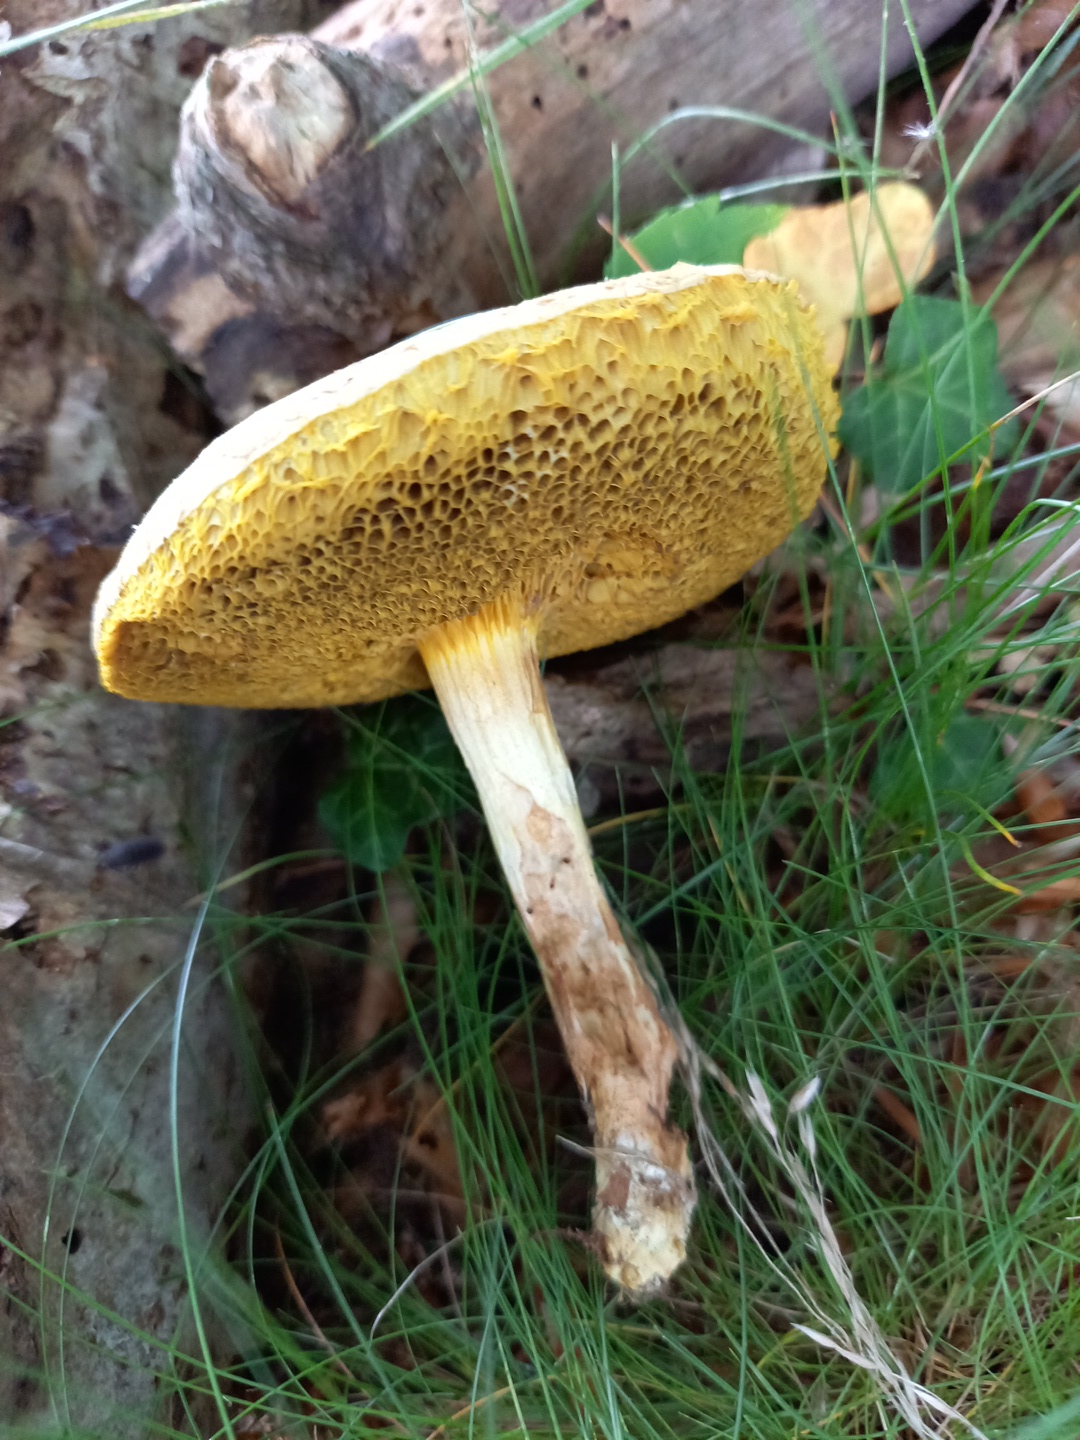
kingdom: Fungi
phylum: Basidiomycota
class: Agaricomycetes
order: Boletales
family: Boletaceae
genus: Xerocomus
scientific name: Xerocomus
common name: filtrørhat
